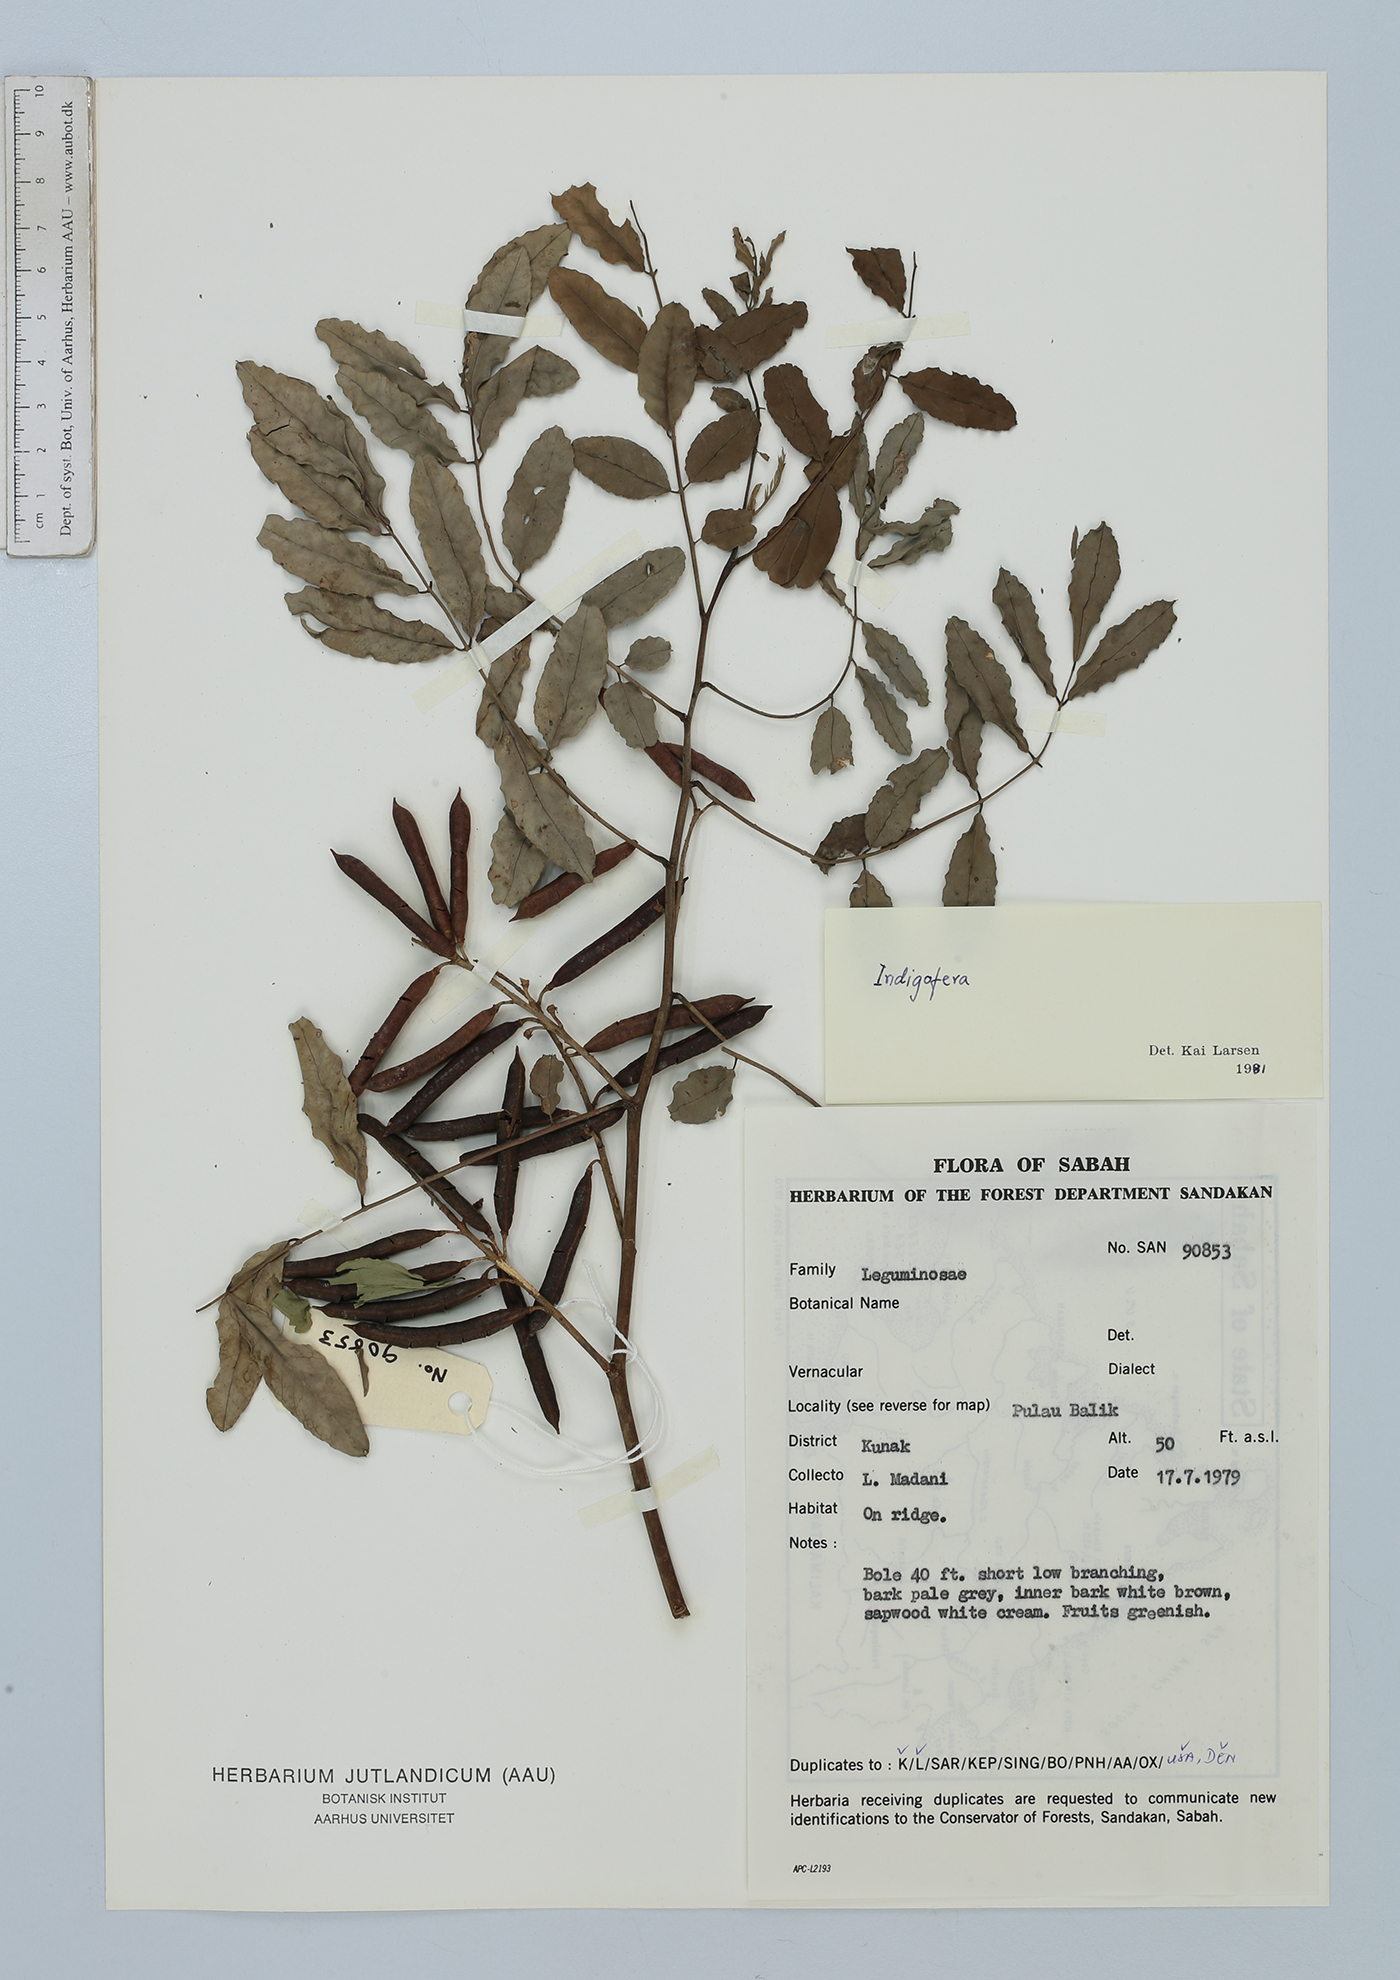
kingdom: Plantae
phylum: Tracheophyta
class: Magnoliopsida
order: Fabales
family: Fabaceae
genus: Indigofera
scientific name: Indigofera
